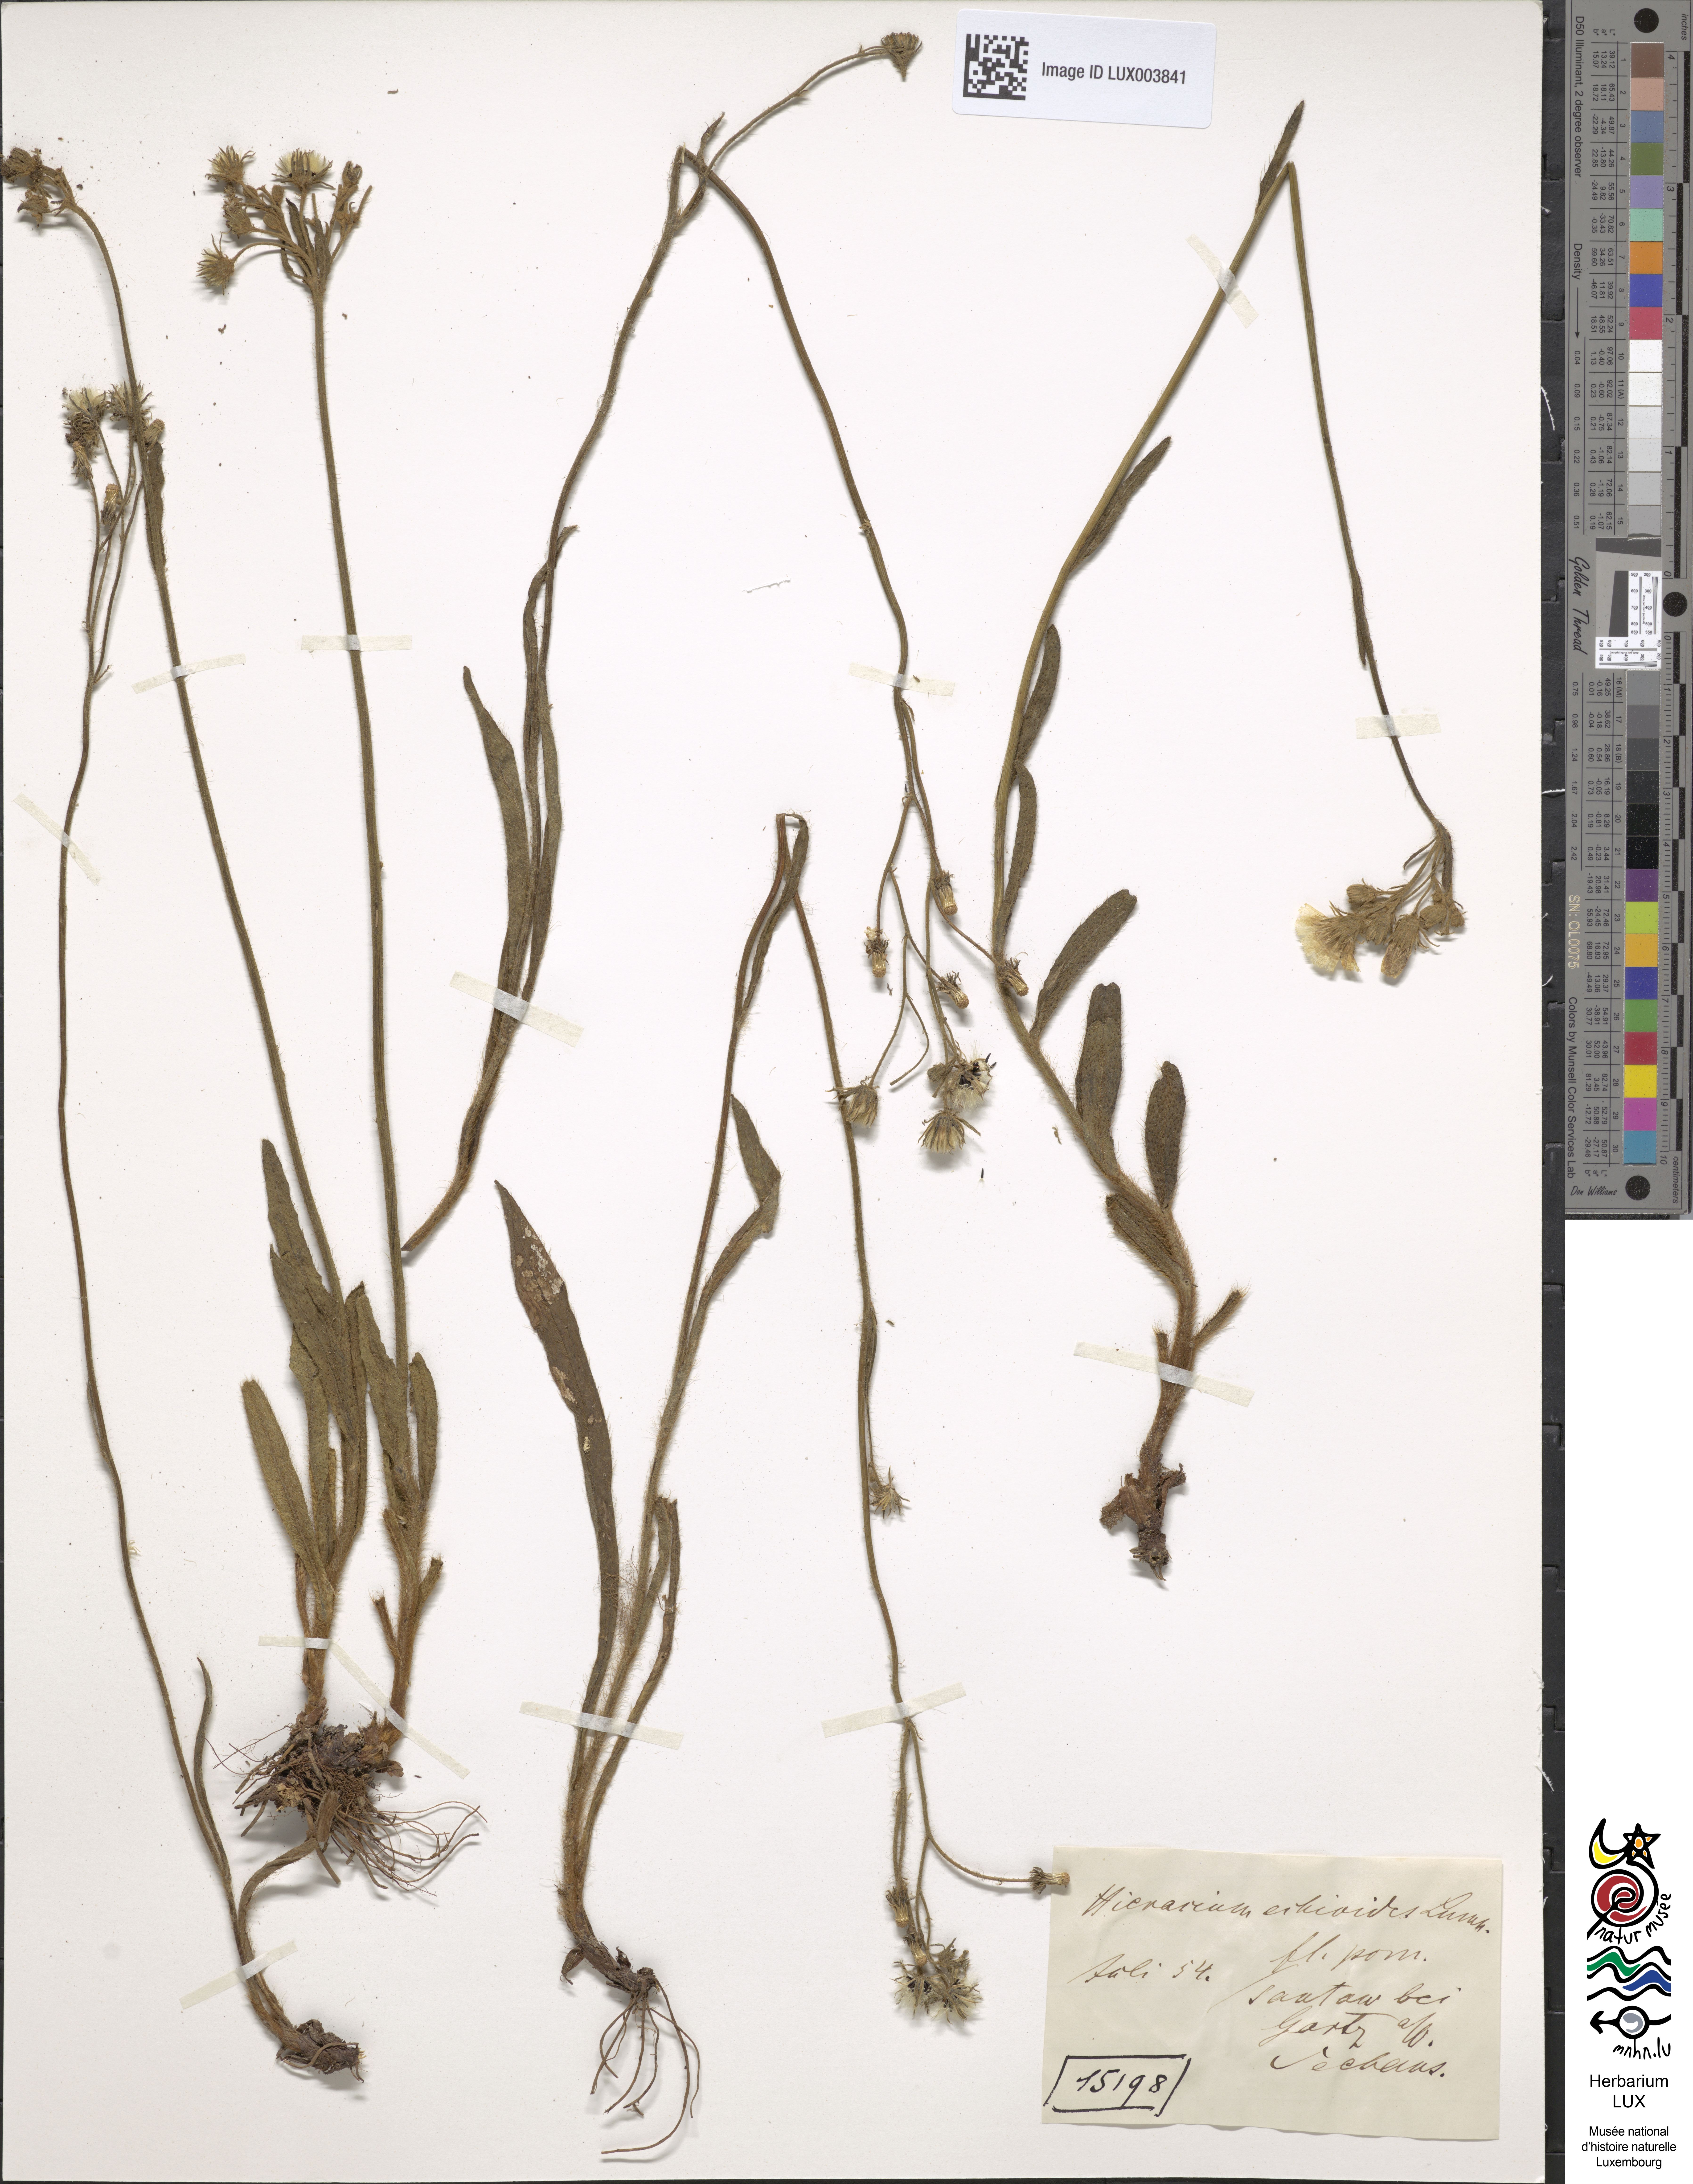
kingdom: Plantae
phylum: Tracheophyta
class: Magnoliopsida
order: Asterales
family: Asteraceae
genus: Pilosella
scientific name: Pilosella echioides
